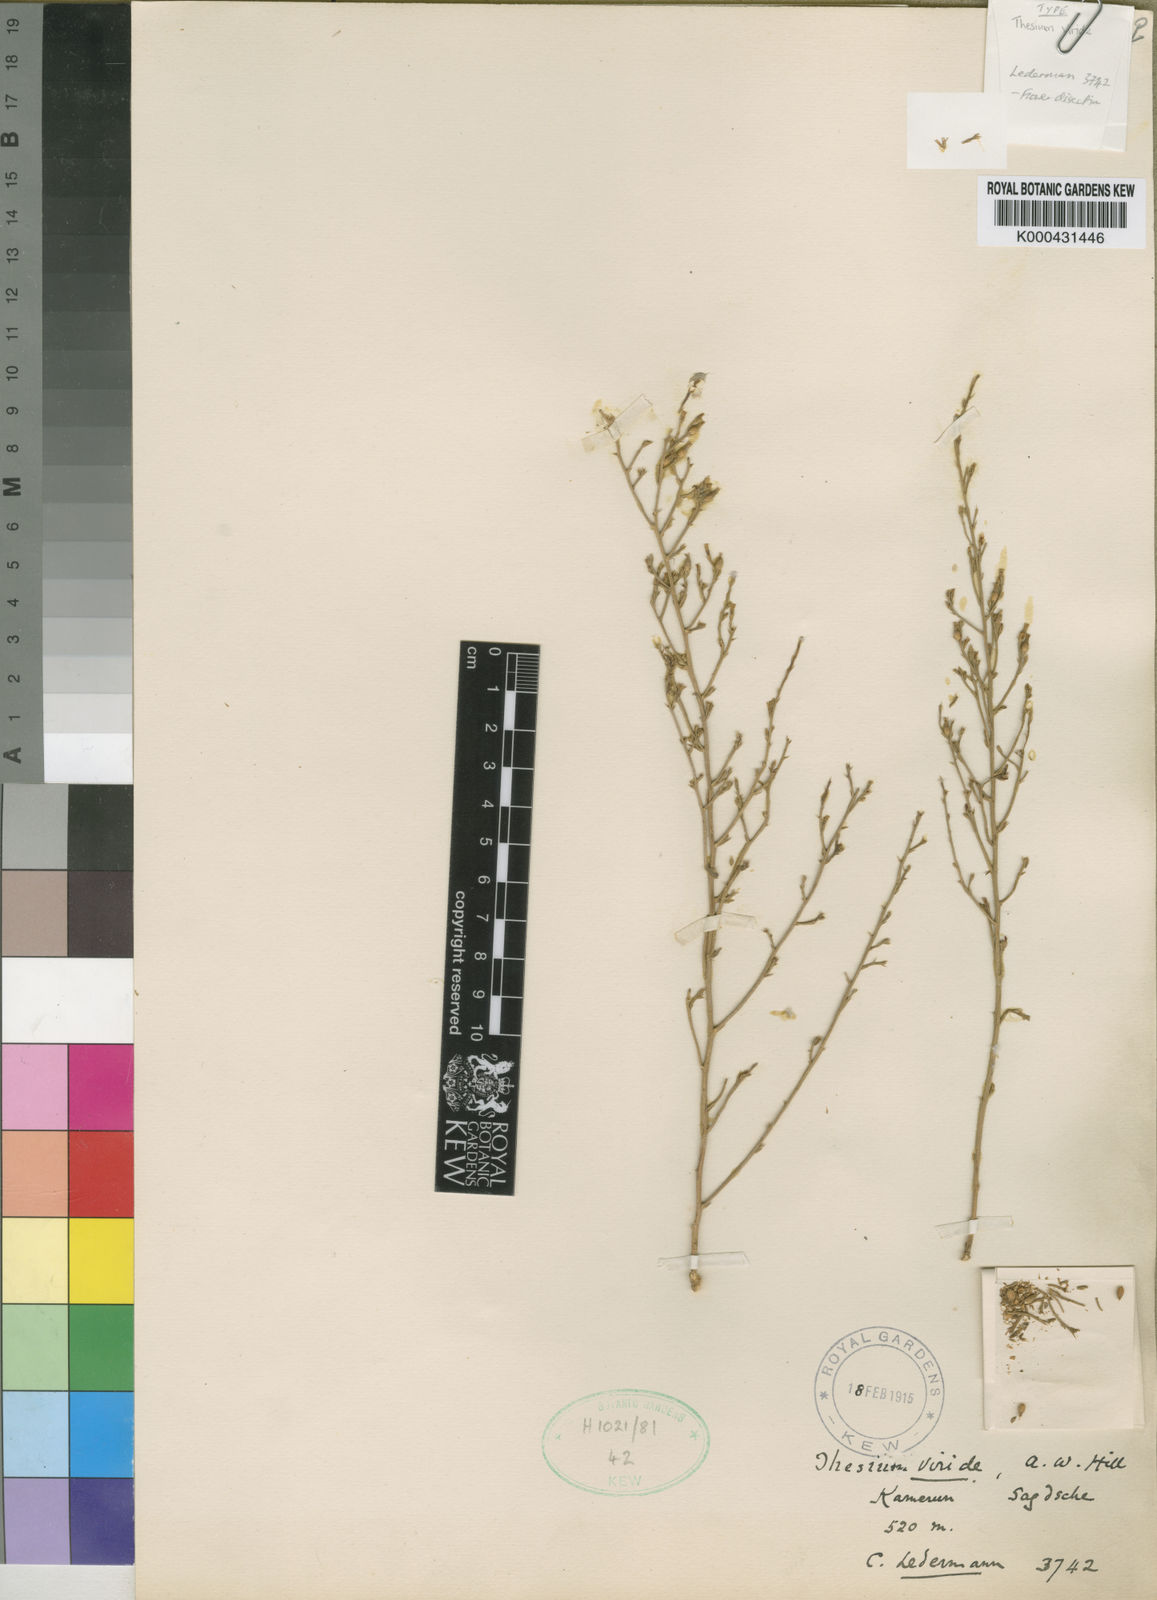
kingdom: Plantae
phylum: Tracheophyta
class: Magnoliopsida
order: Santalales
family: Thesiaceae
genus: Thesium
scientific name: Thesium viride
